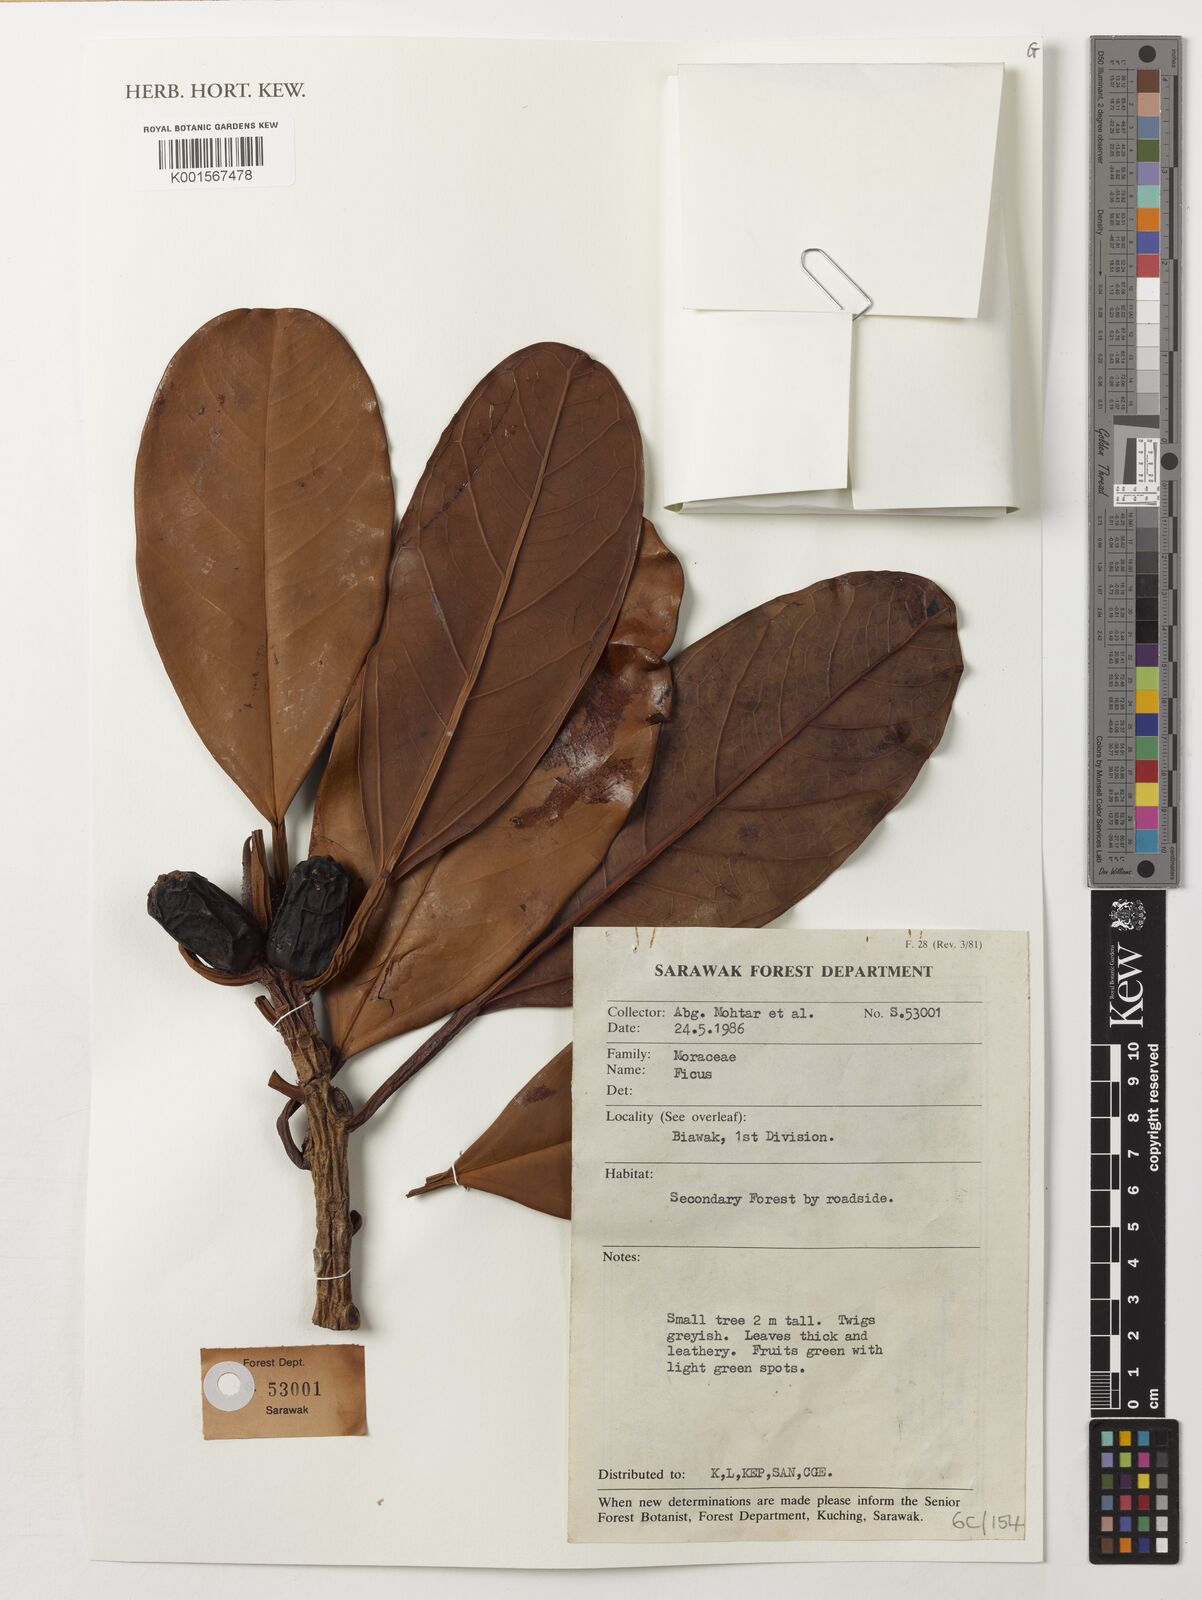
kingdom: Plantae
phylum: Tracheophyta
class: Magnoliopsida
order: Rosales
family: Moraceae
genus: Ficus
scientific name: Ficus
